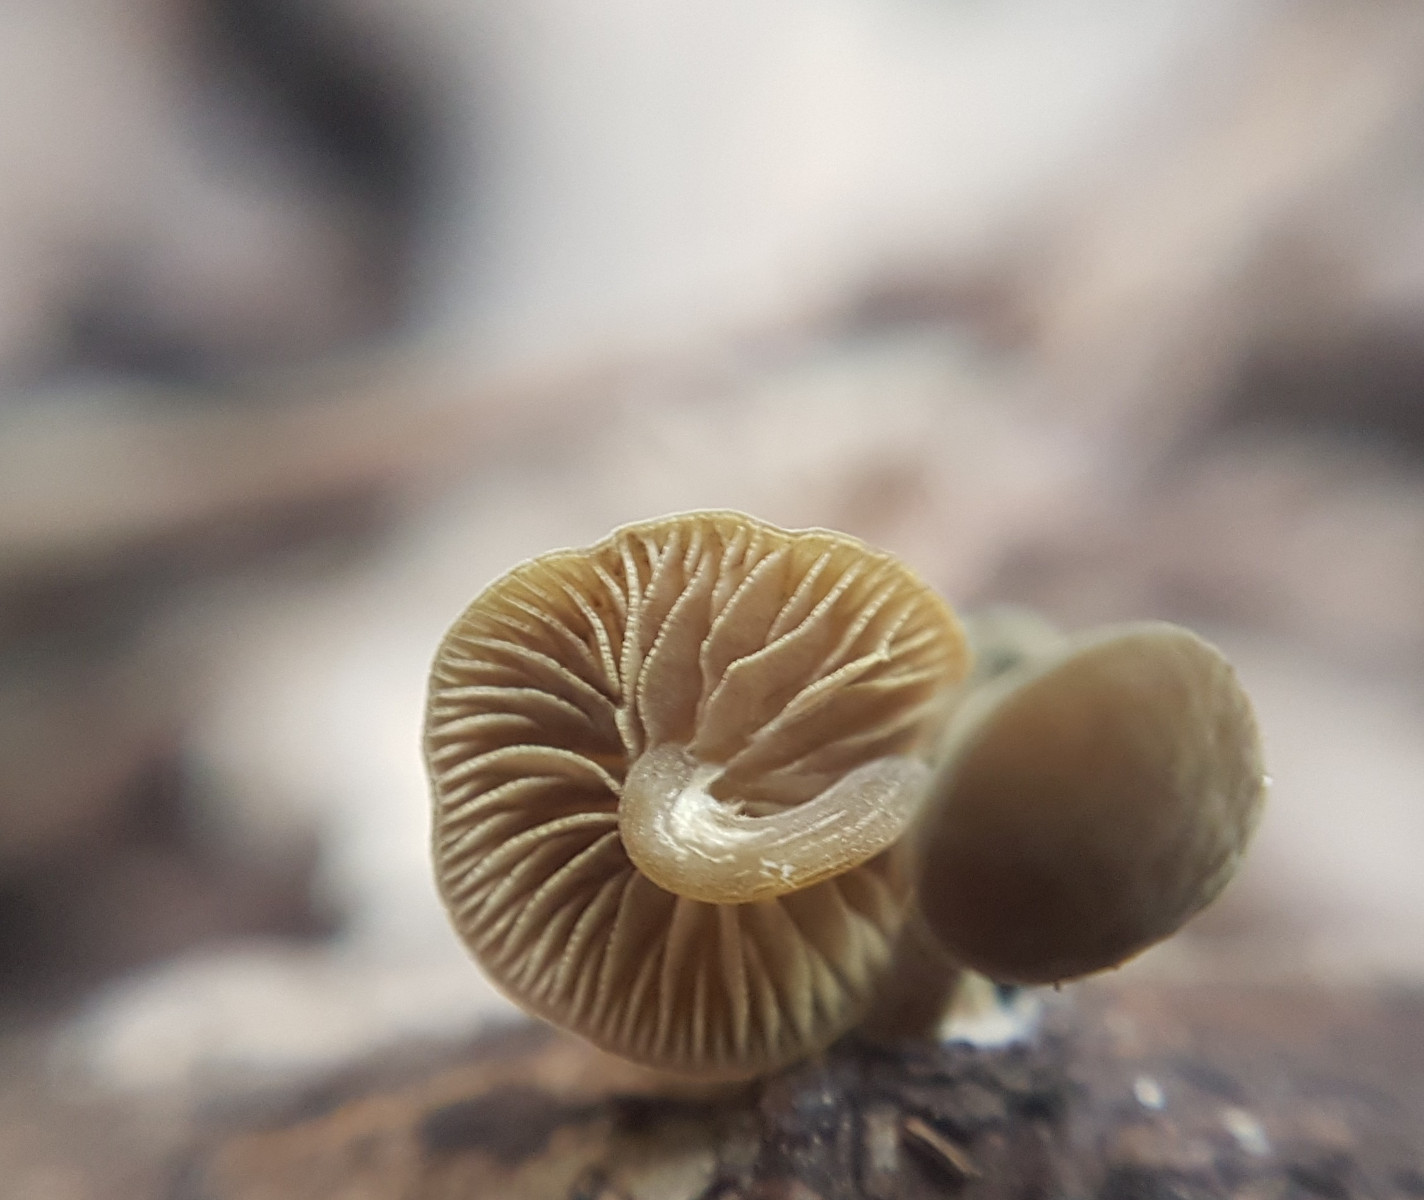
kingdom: Fungi
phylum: Basidiomycota
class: Agaricomycetes
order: Agaricales
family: Crepidotaceae
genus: Simocybe
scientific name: Simocybe centunculus
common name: enlig skyggehat
